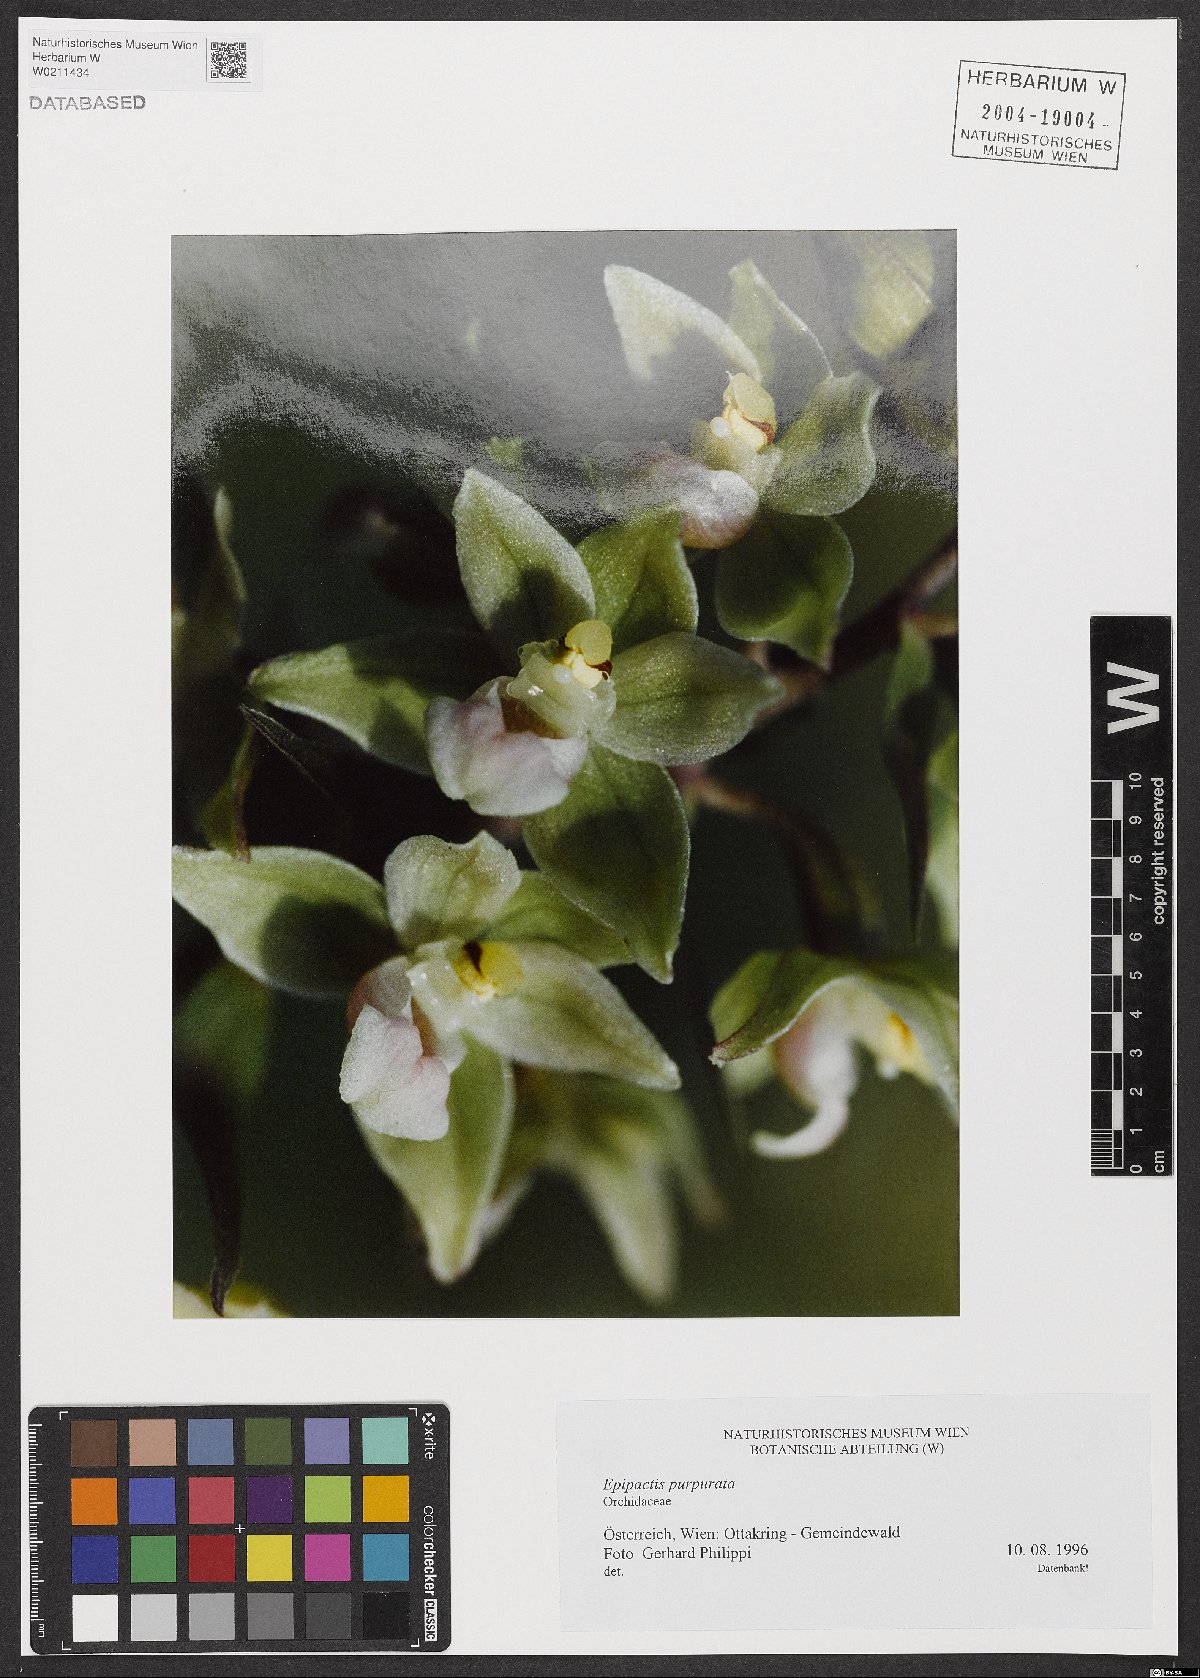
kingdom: Plantae
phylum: Tracheophyta
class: Liliopsida
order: Asparagales
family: Orchidaceae
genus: Epipactis
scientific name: Epipactis purpurata
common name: Violet helleborine
